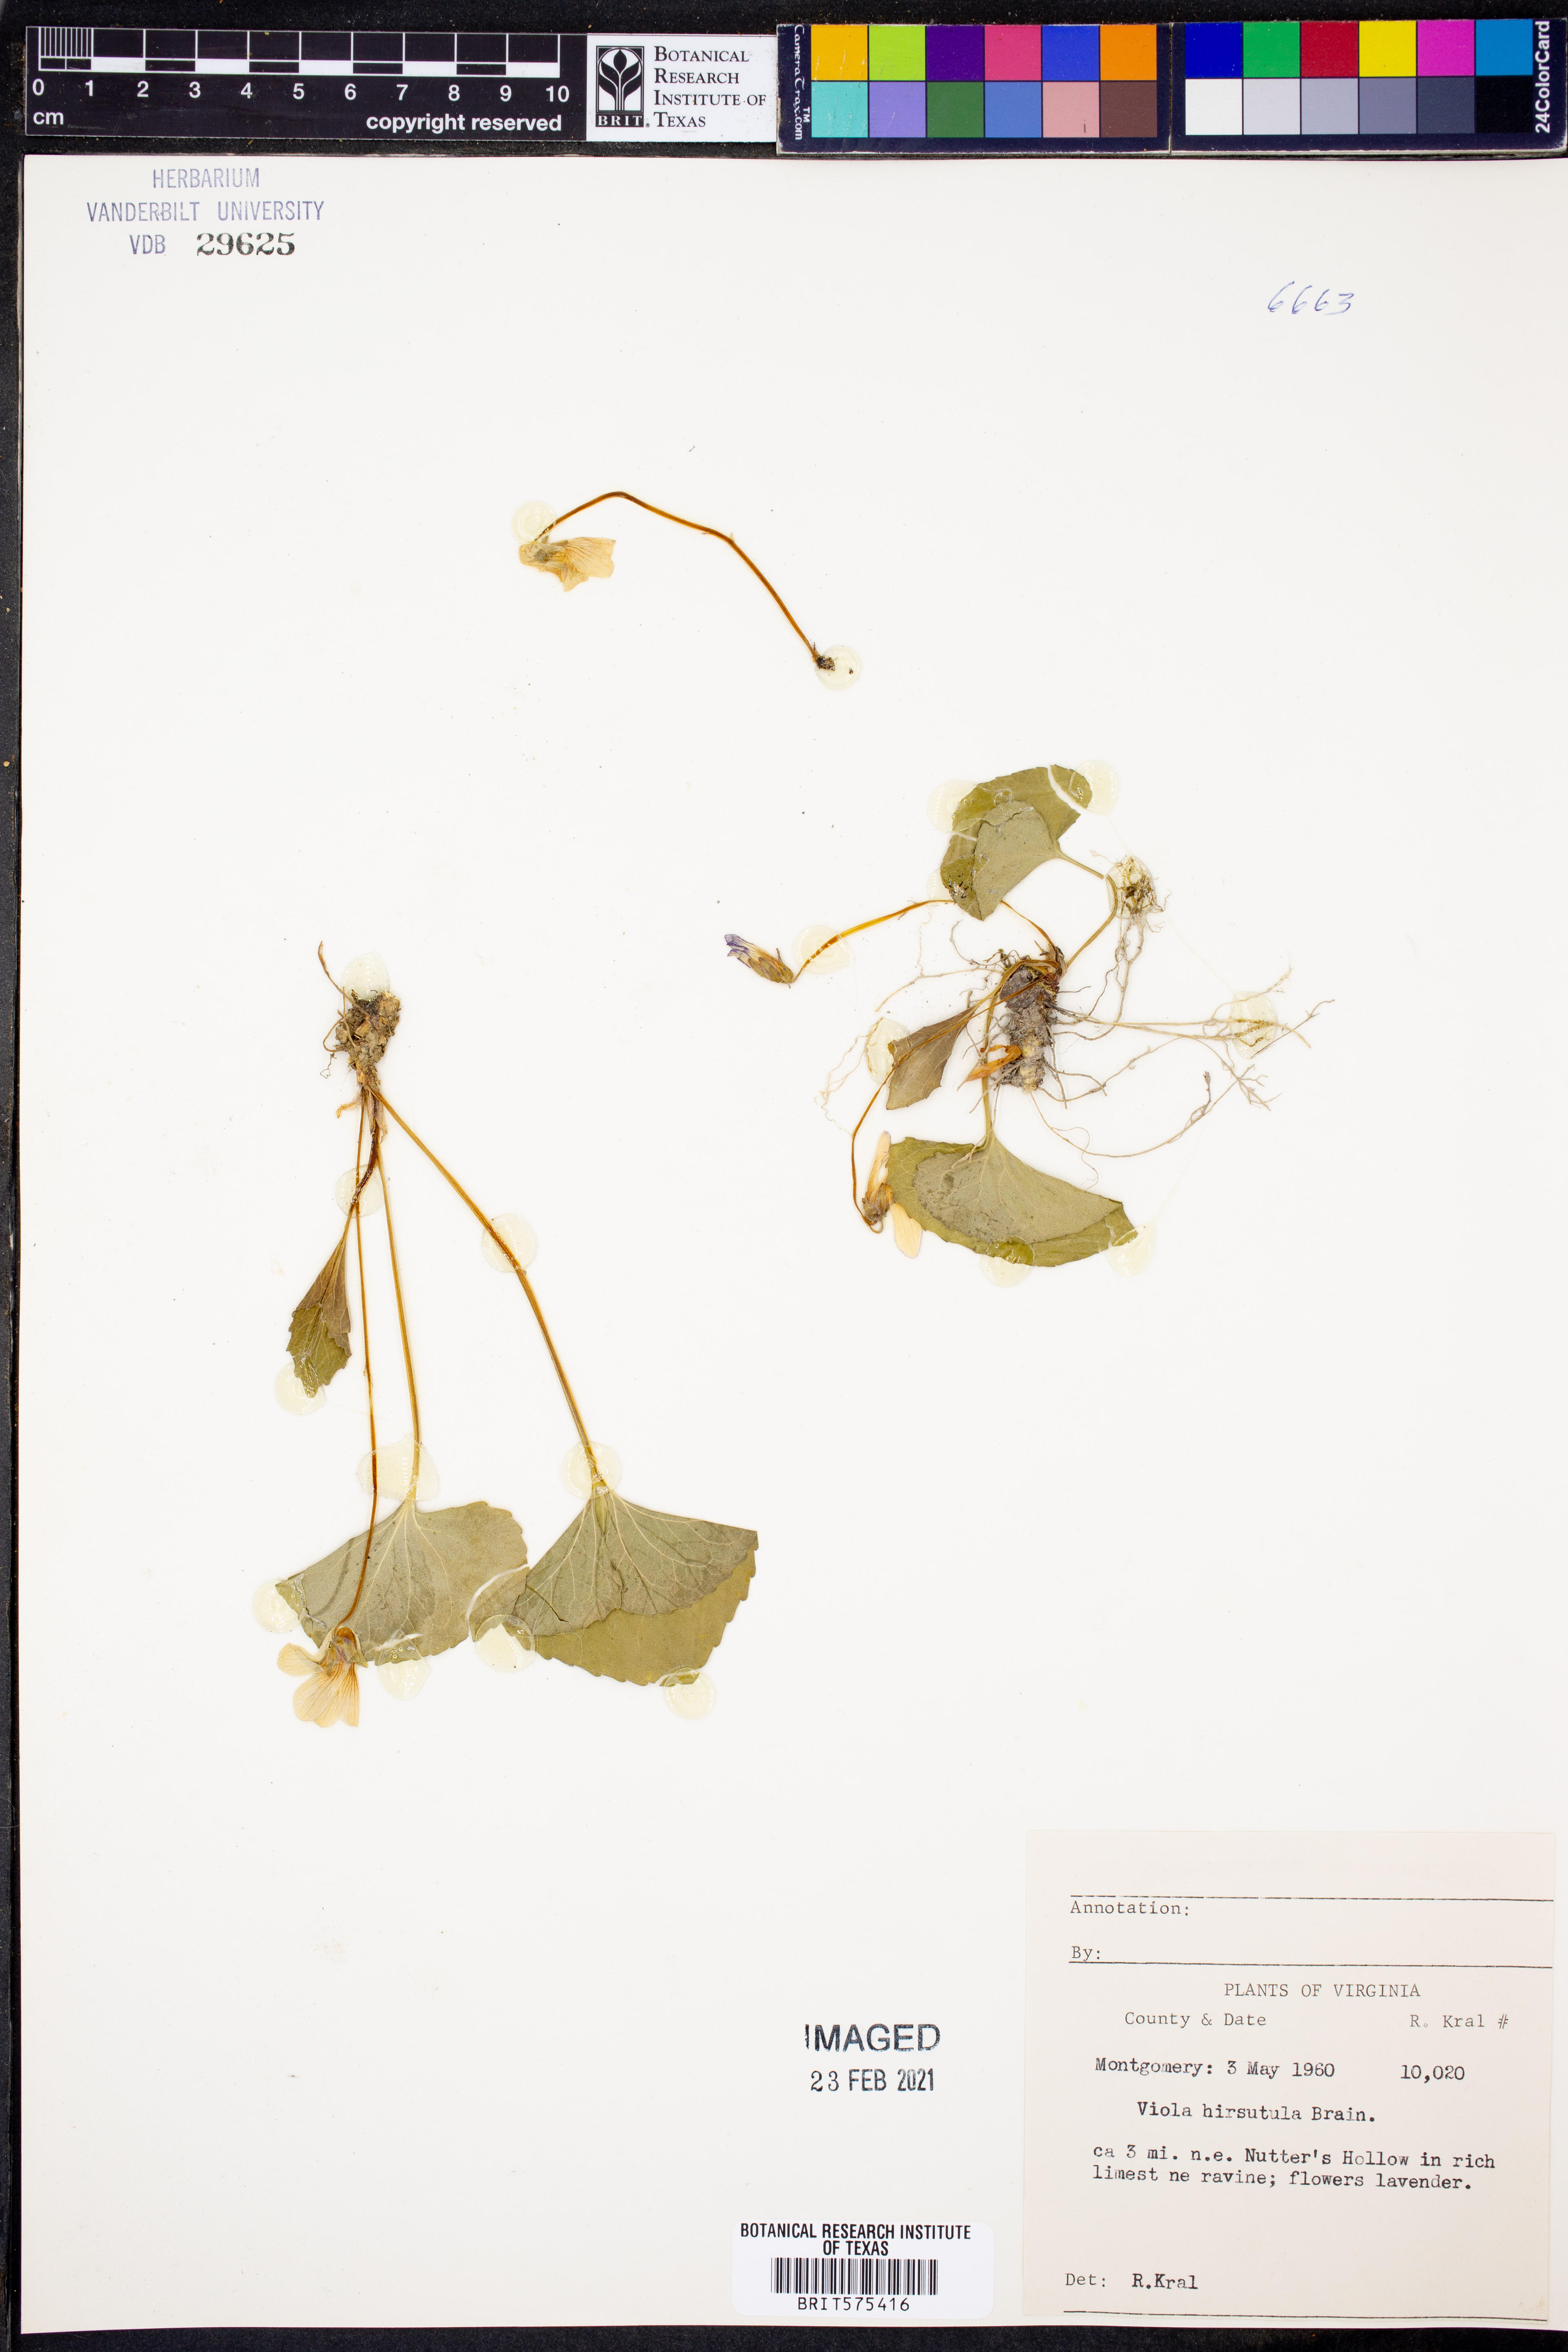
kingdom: Plantae
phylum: Tracheophyta
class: Magnoliopsida
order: Malpighiales
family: Violaceae
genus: Viola
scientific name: Viola hirsutula
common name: Southern wood violet
